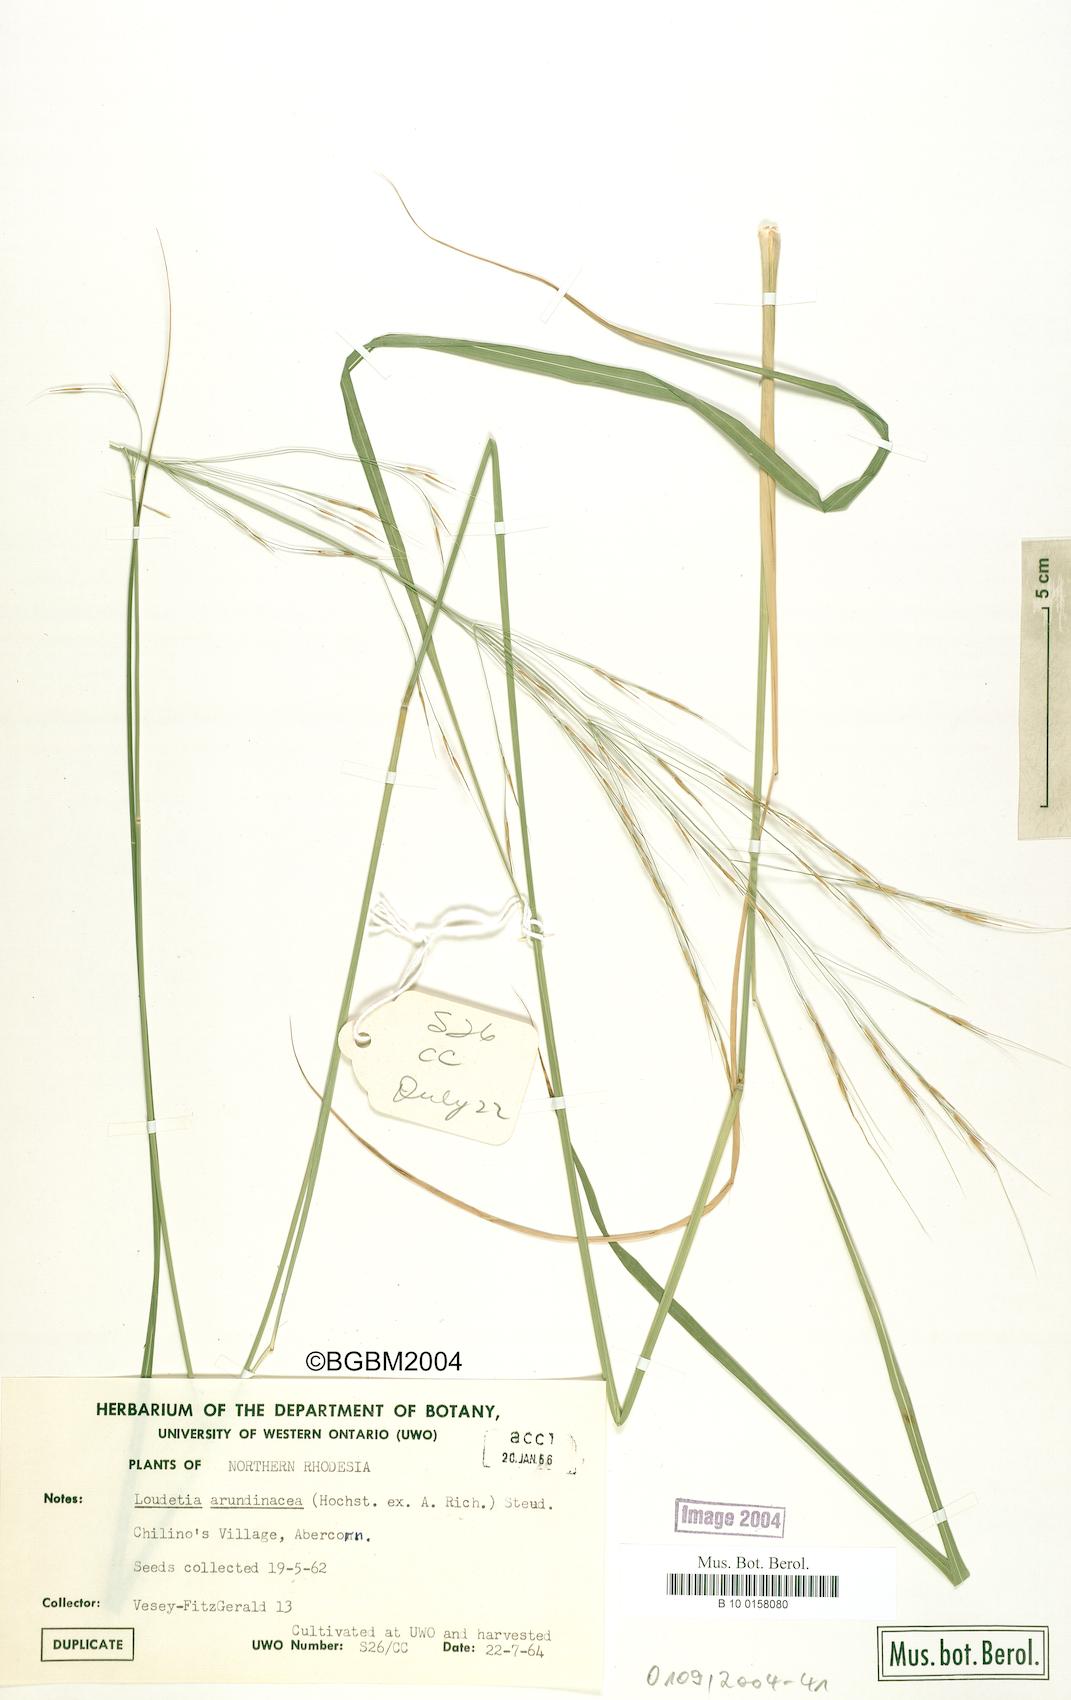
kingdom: Plantae
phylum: Tracheophyta
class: Liliopsida
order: Poales
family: Poaceae
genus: Loudetia
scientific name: Loudetia arundinacea
